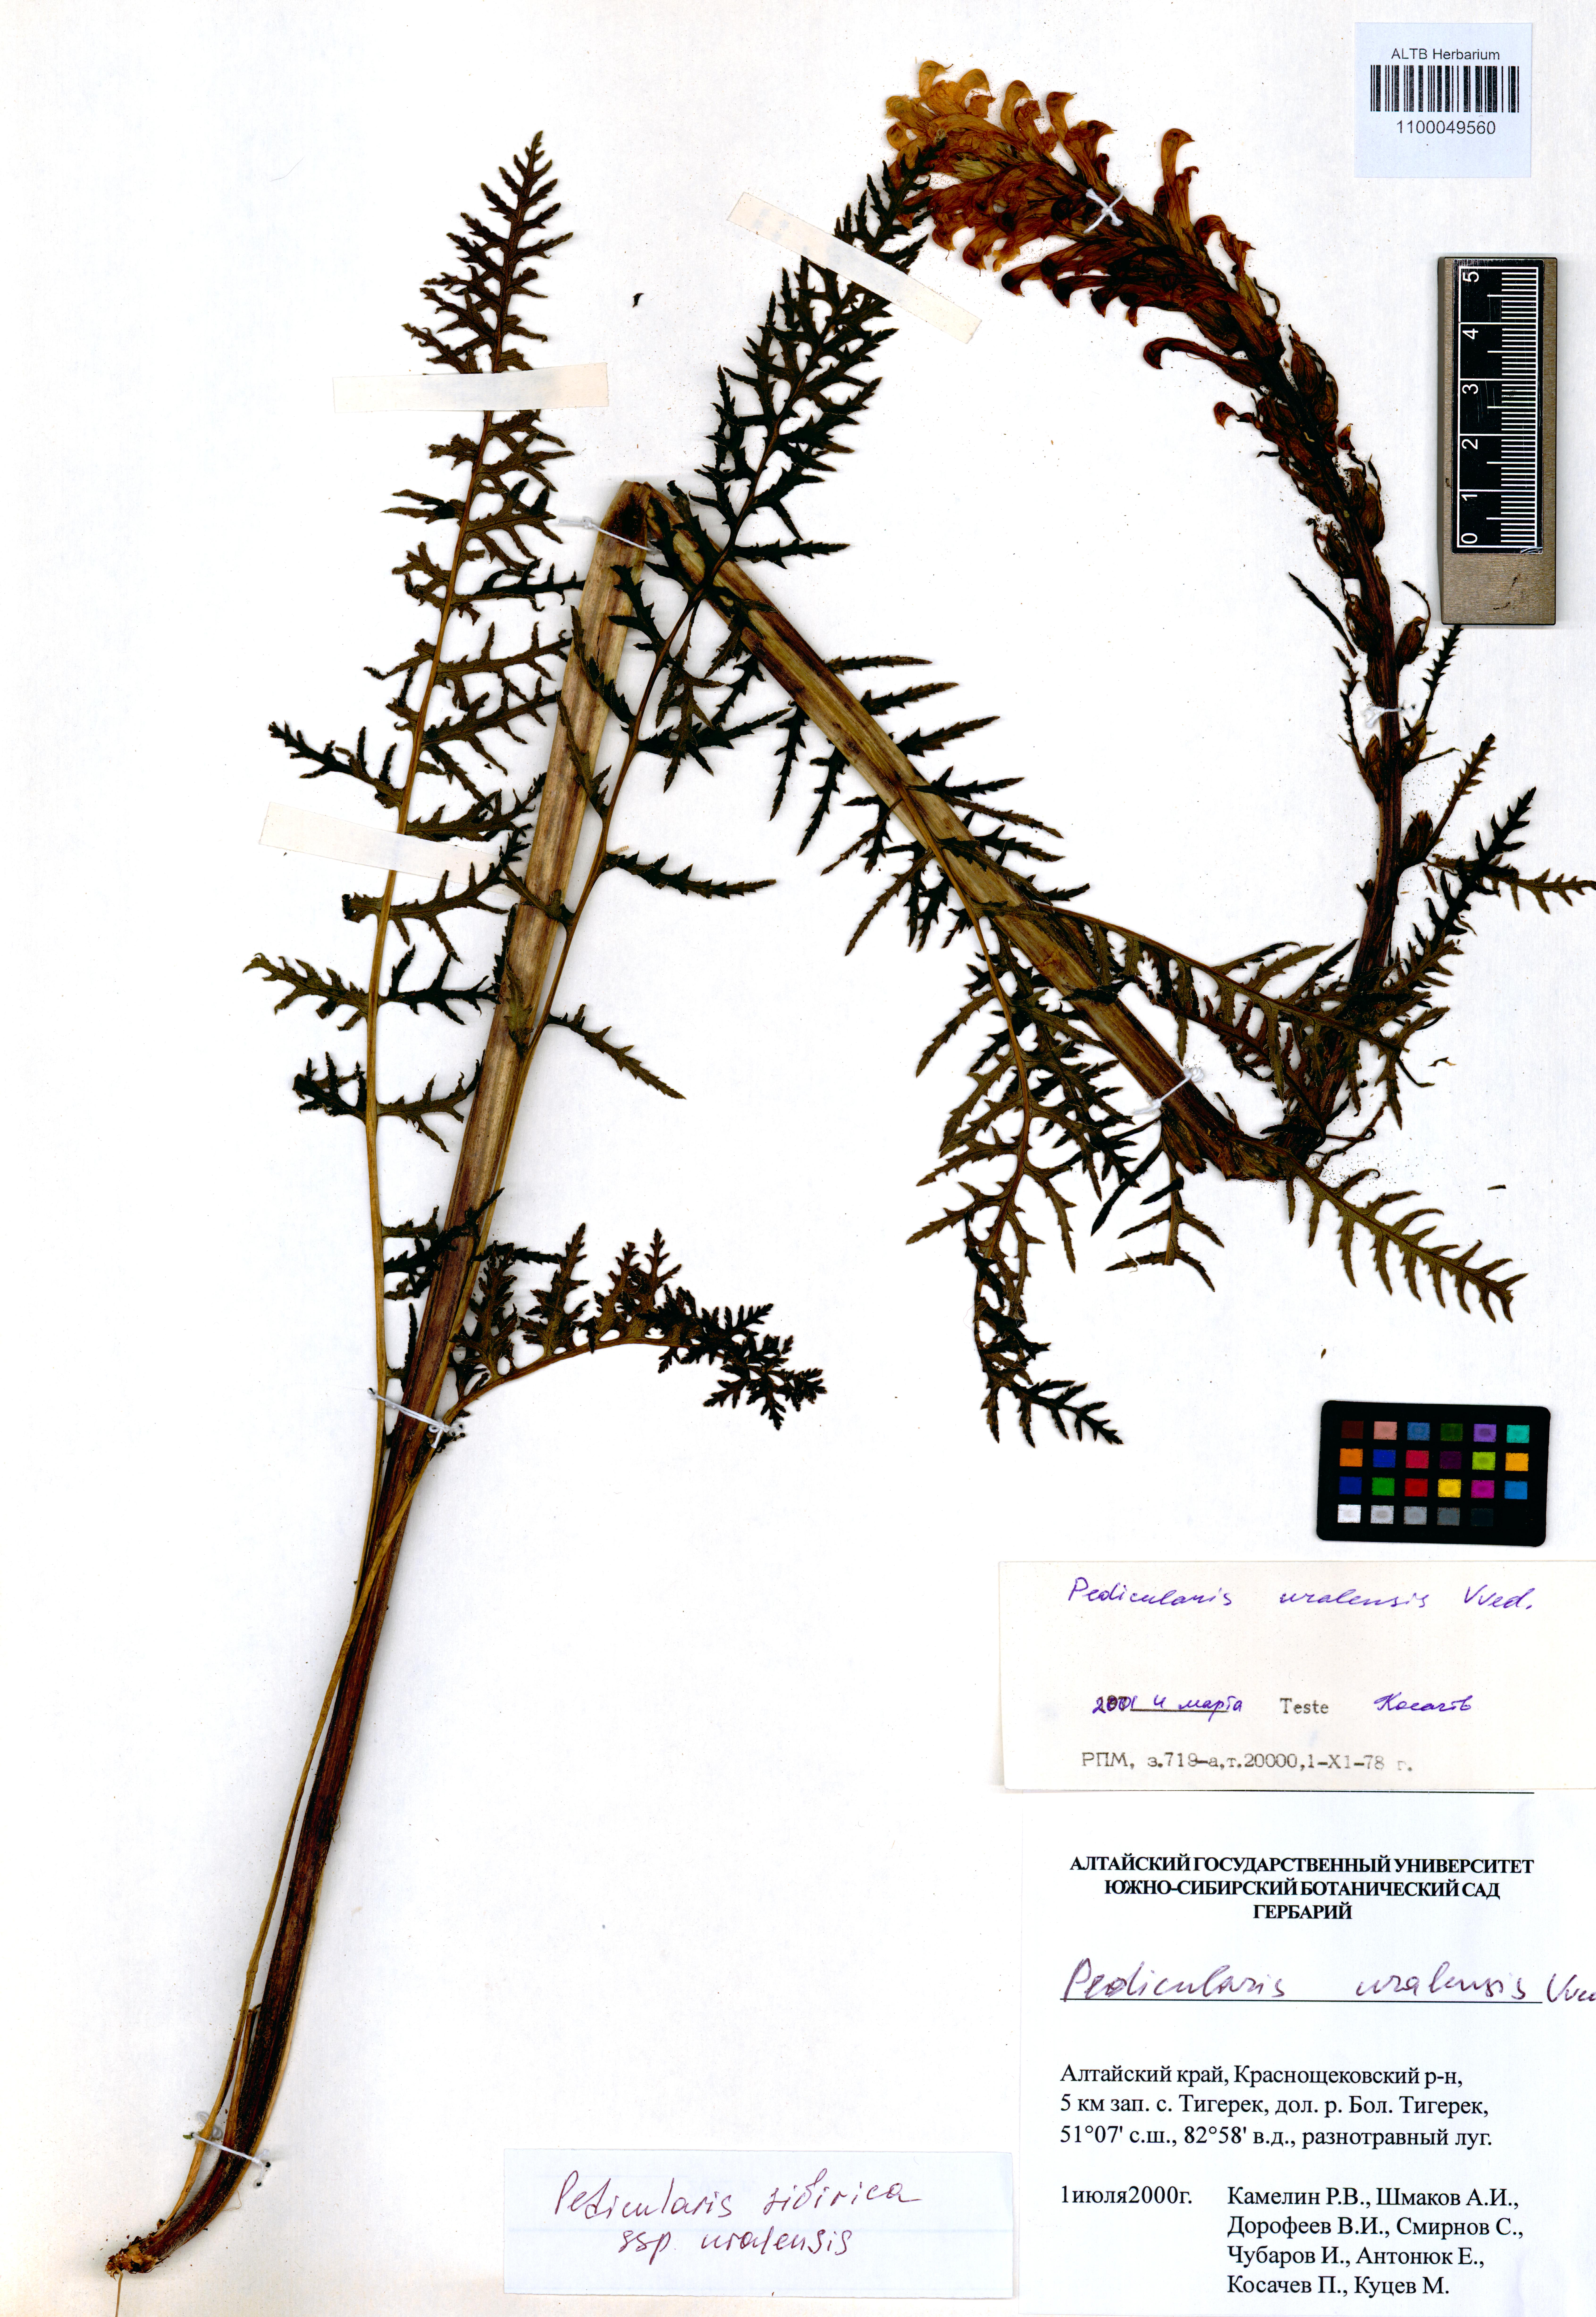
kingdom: Plantae
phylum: Tracheophyta
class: Magnoliopsida
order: Lamiales
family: Orobanchaceae
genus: Pedicularis
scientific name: Pedicularis uralensis
